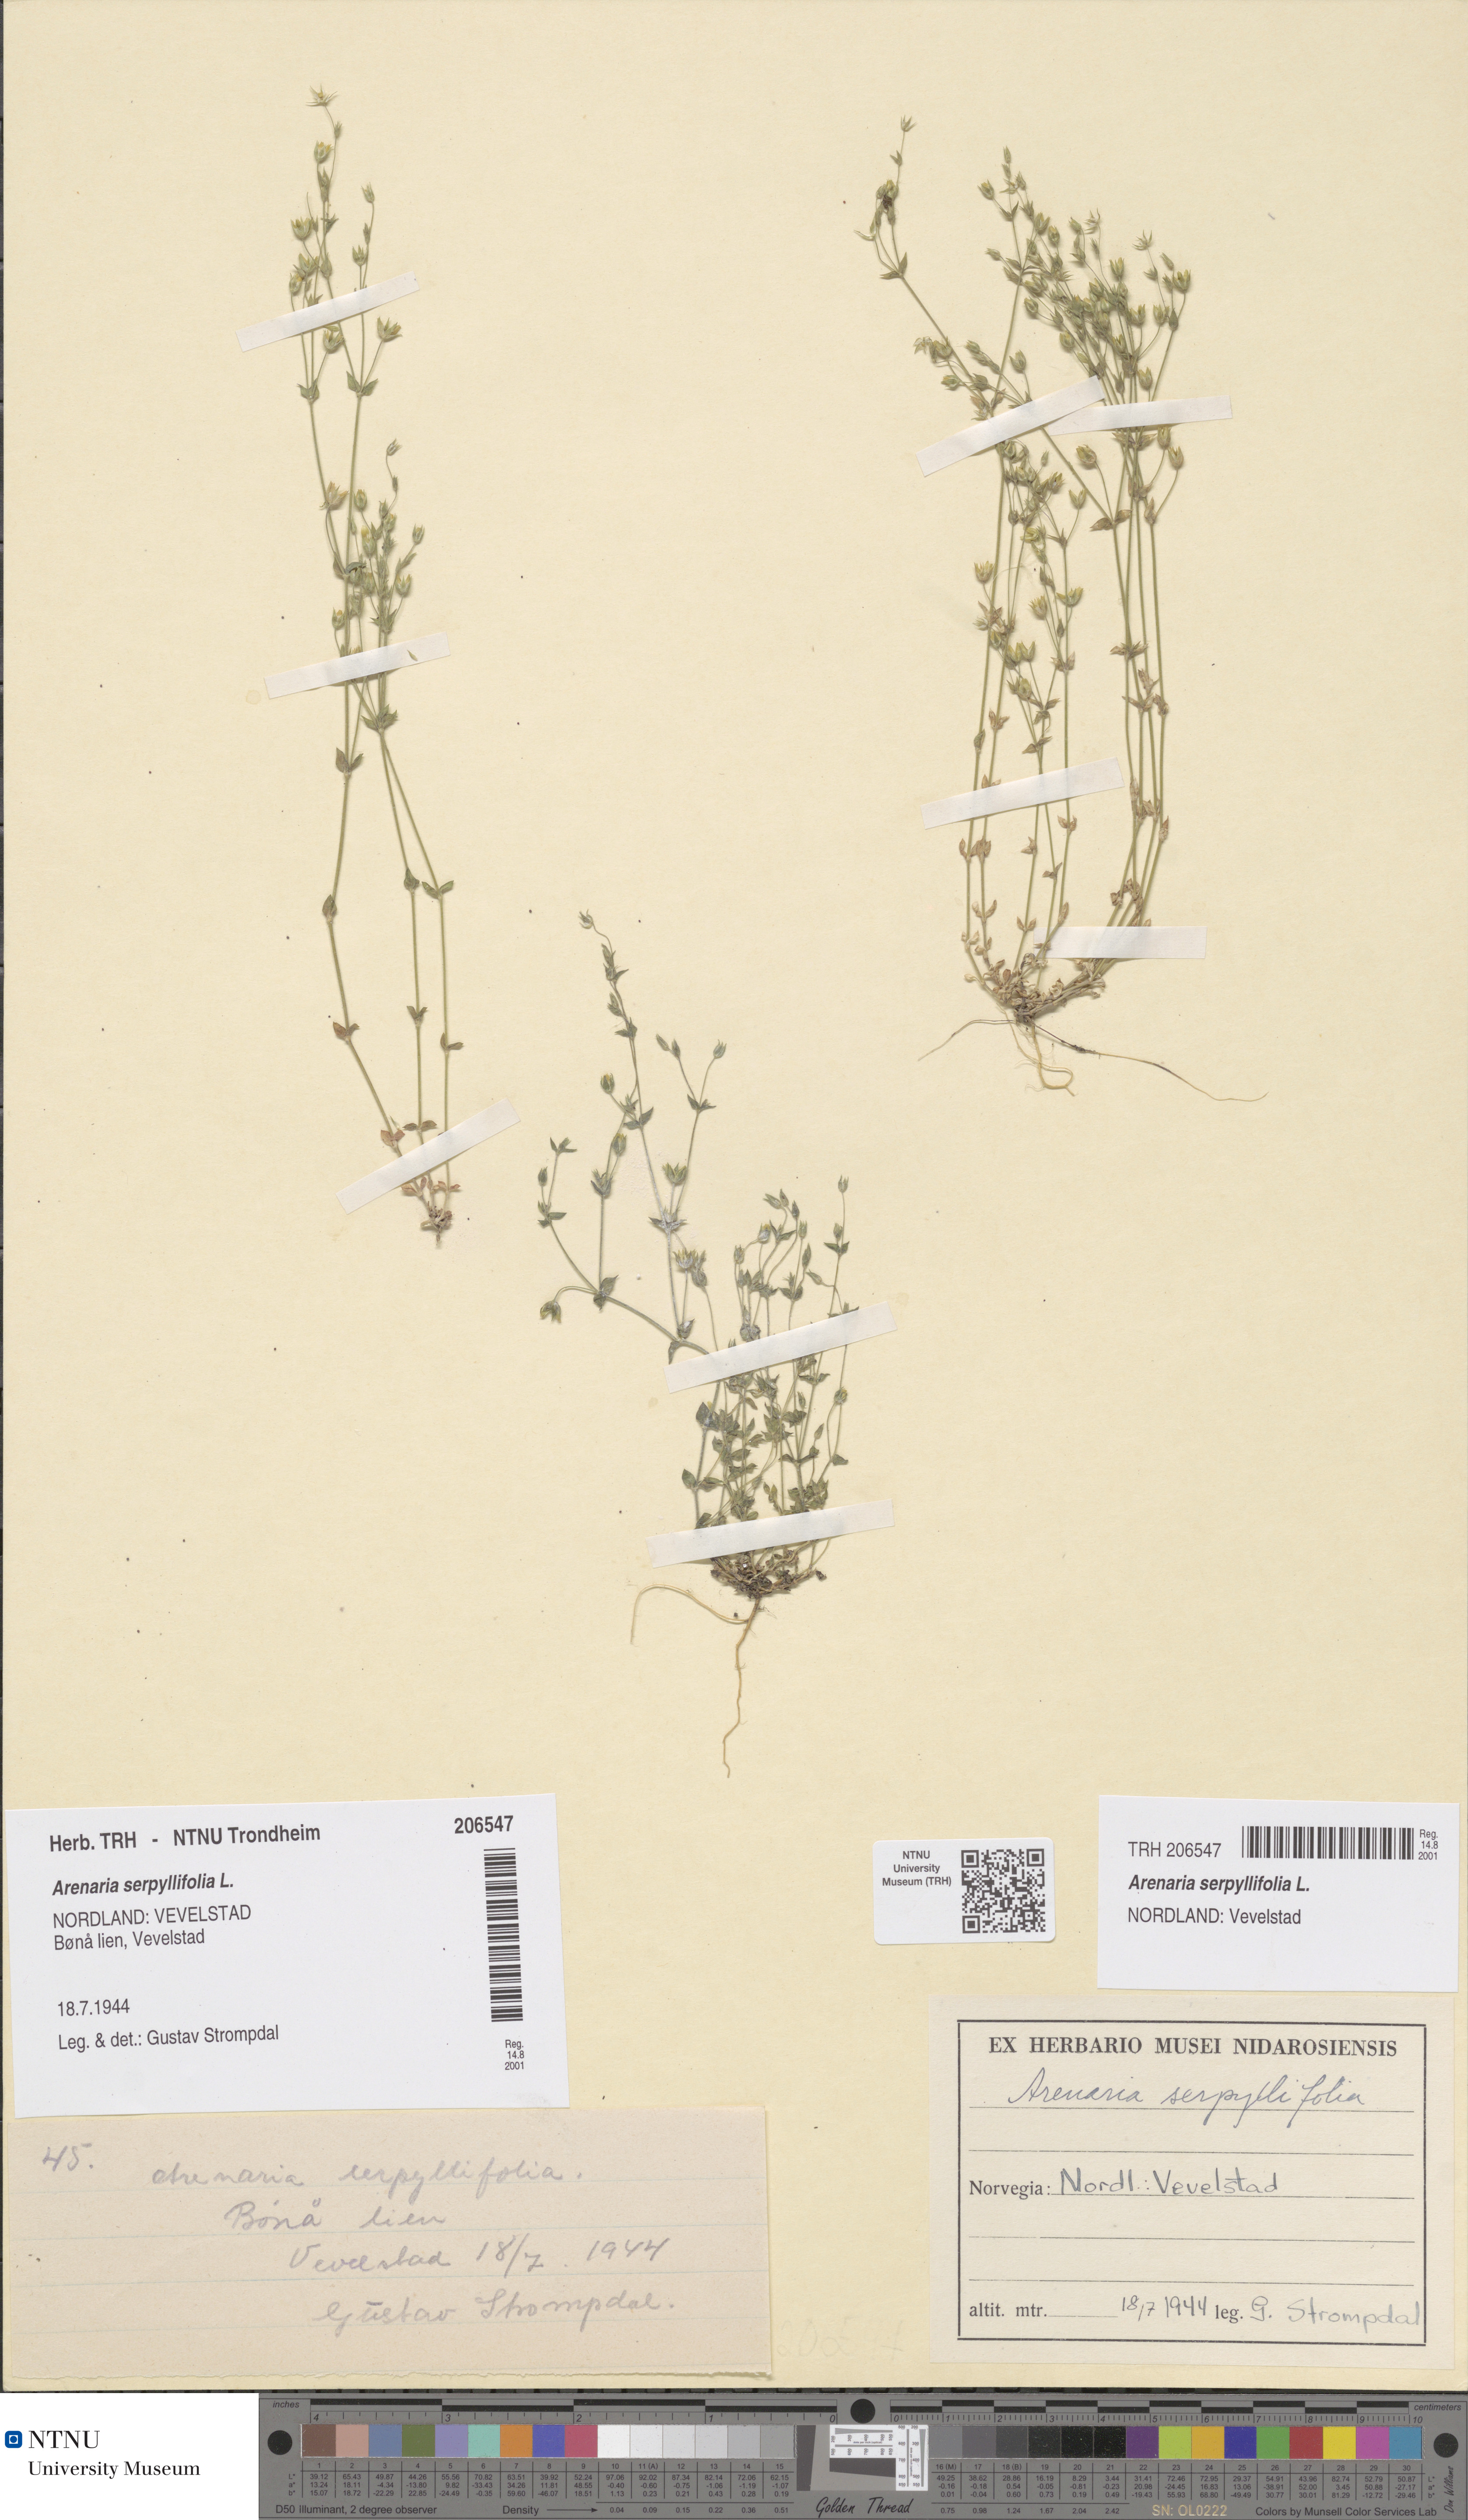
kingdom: Plantae
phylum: Tracheophyta
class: Magnoliopsida
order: Caryophyllales
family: Caryophyllaceae
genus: Arenaria
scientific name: Arenaria serpyllifolia
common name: Thyme-leaved sandwort
